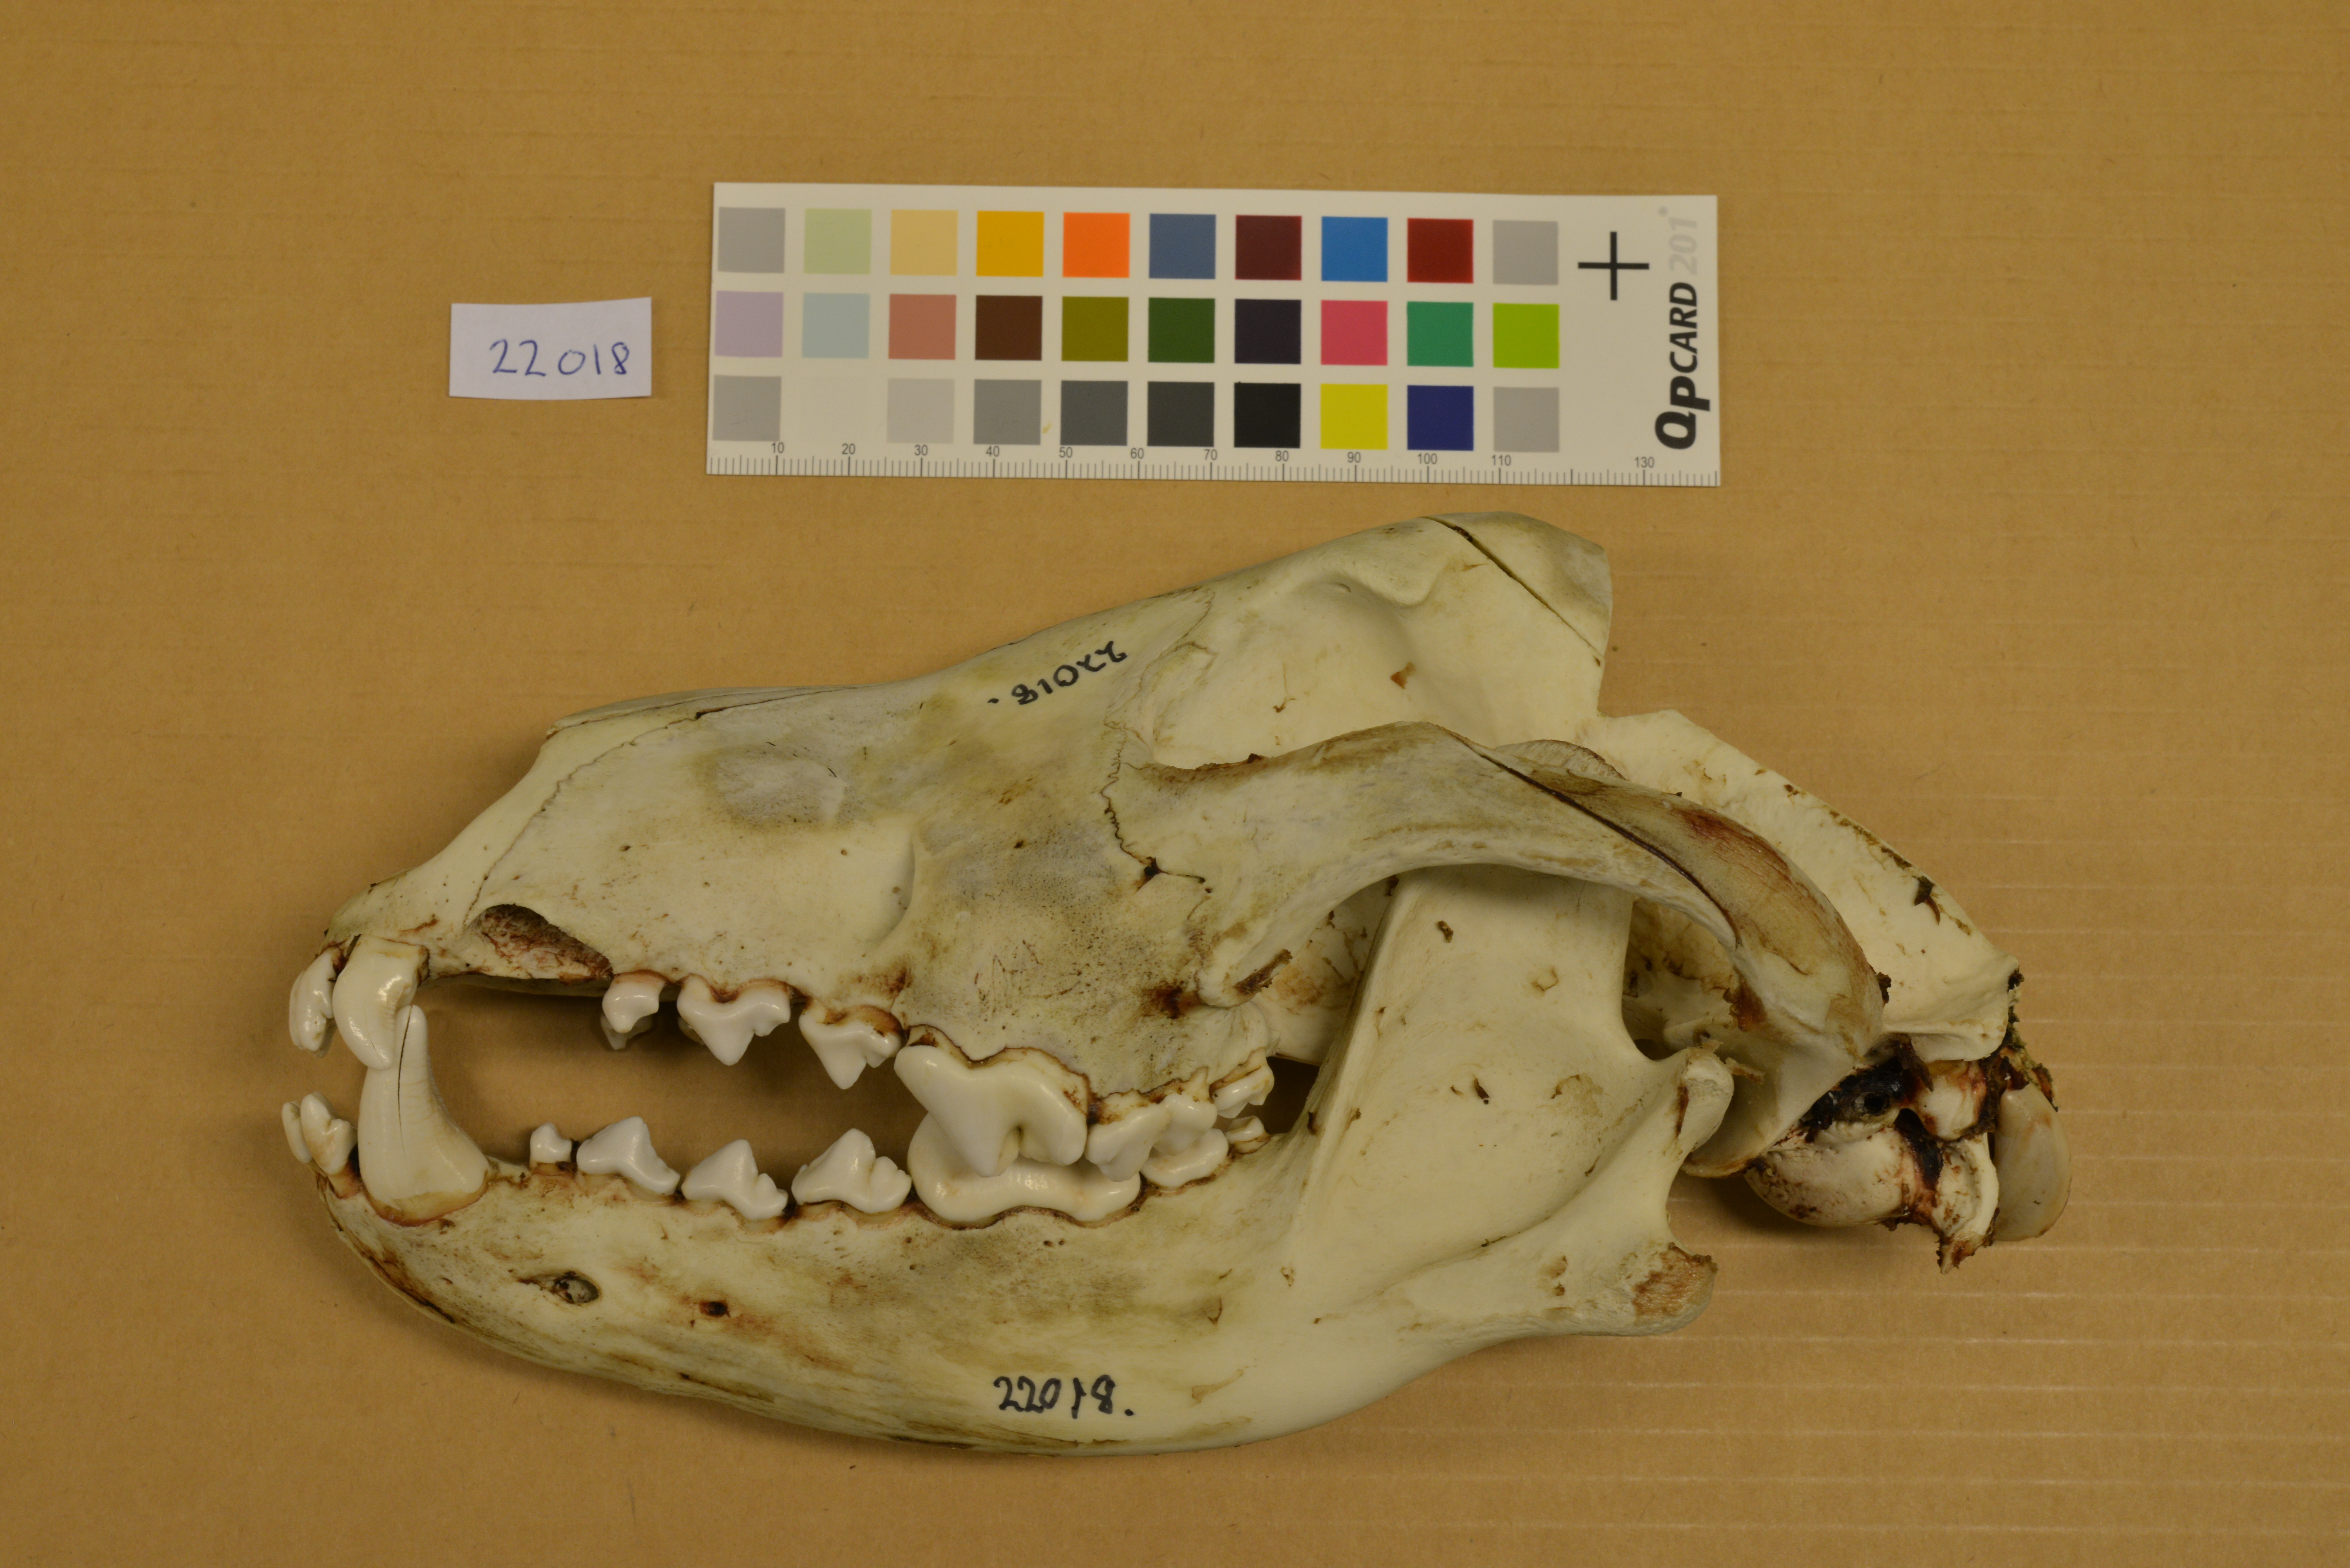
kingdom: Animalia
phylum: Chordata
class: Mammalia
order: Carnivora
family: Canidae
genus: Canis
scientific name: Canis lupus
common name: Gray wolf
